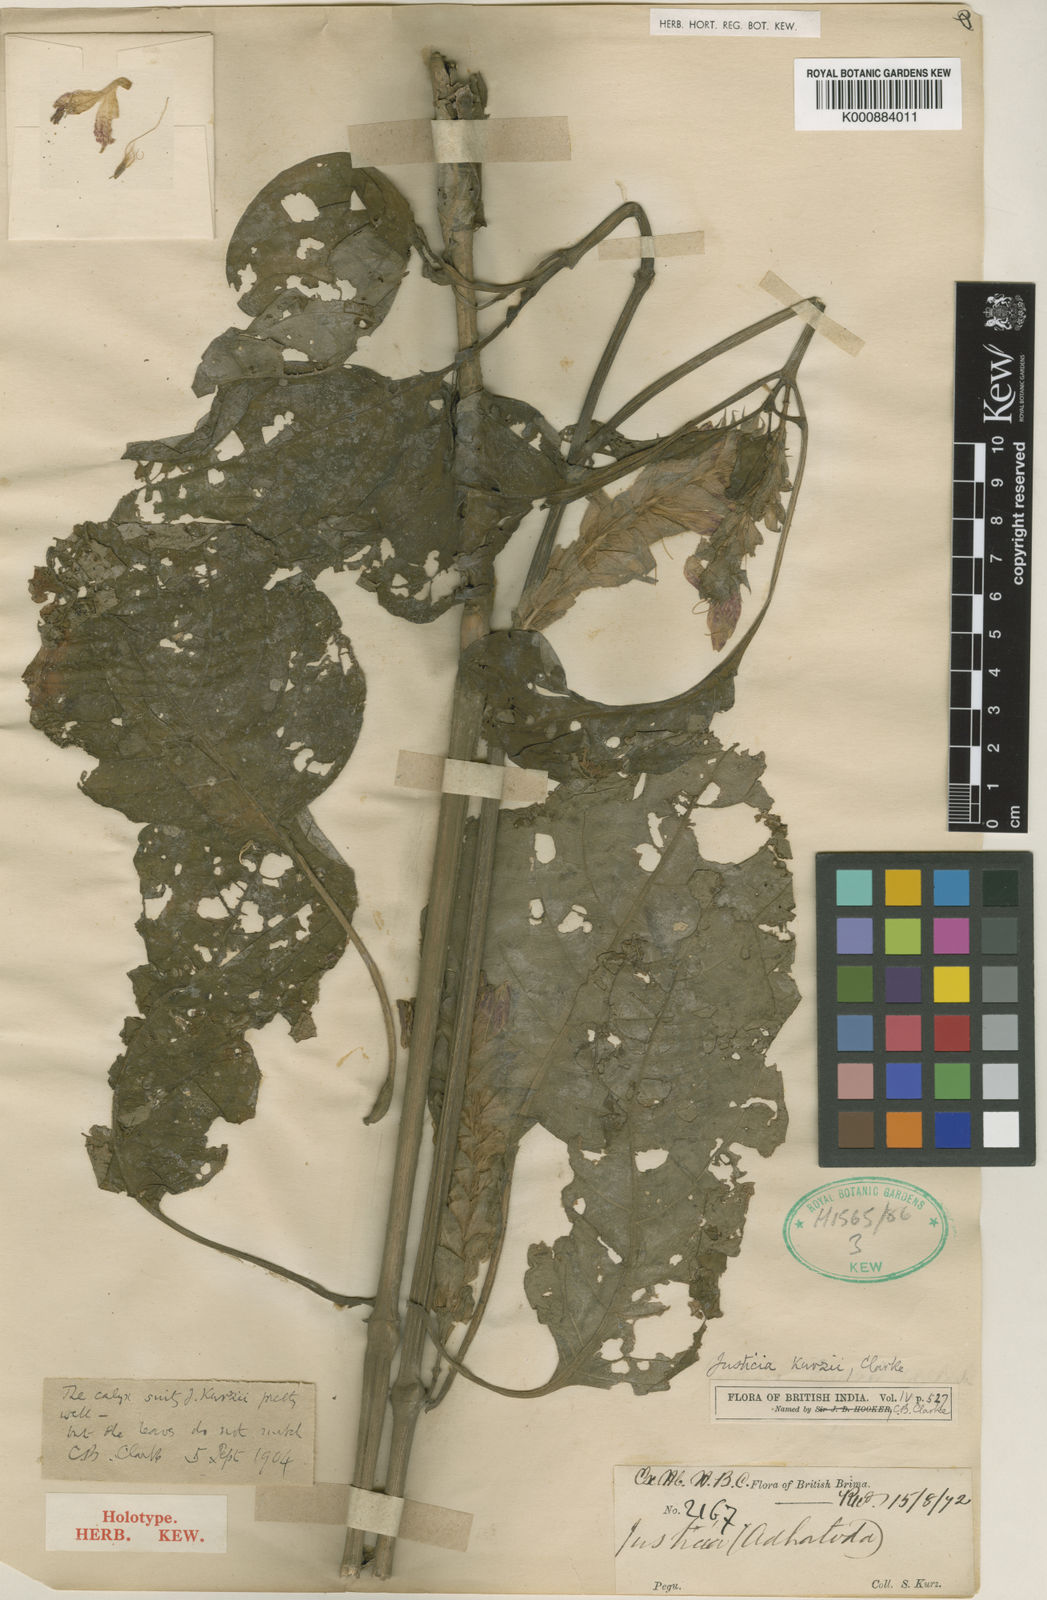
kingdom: Plantae
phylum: Tracheophyta
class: Magnoliopsida
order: Lamiales
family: Acanthaceae
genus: Justicia
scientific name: Justicia kurzii
